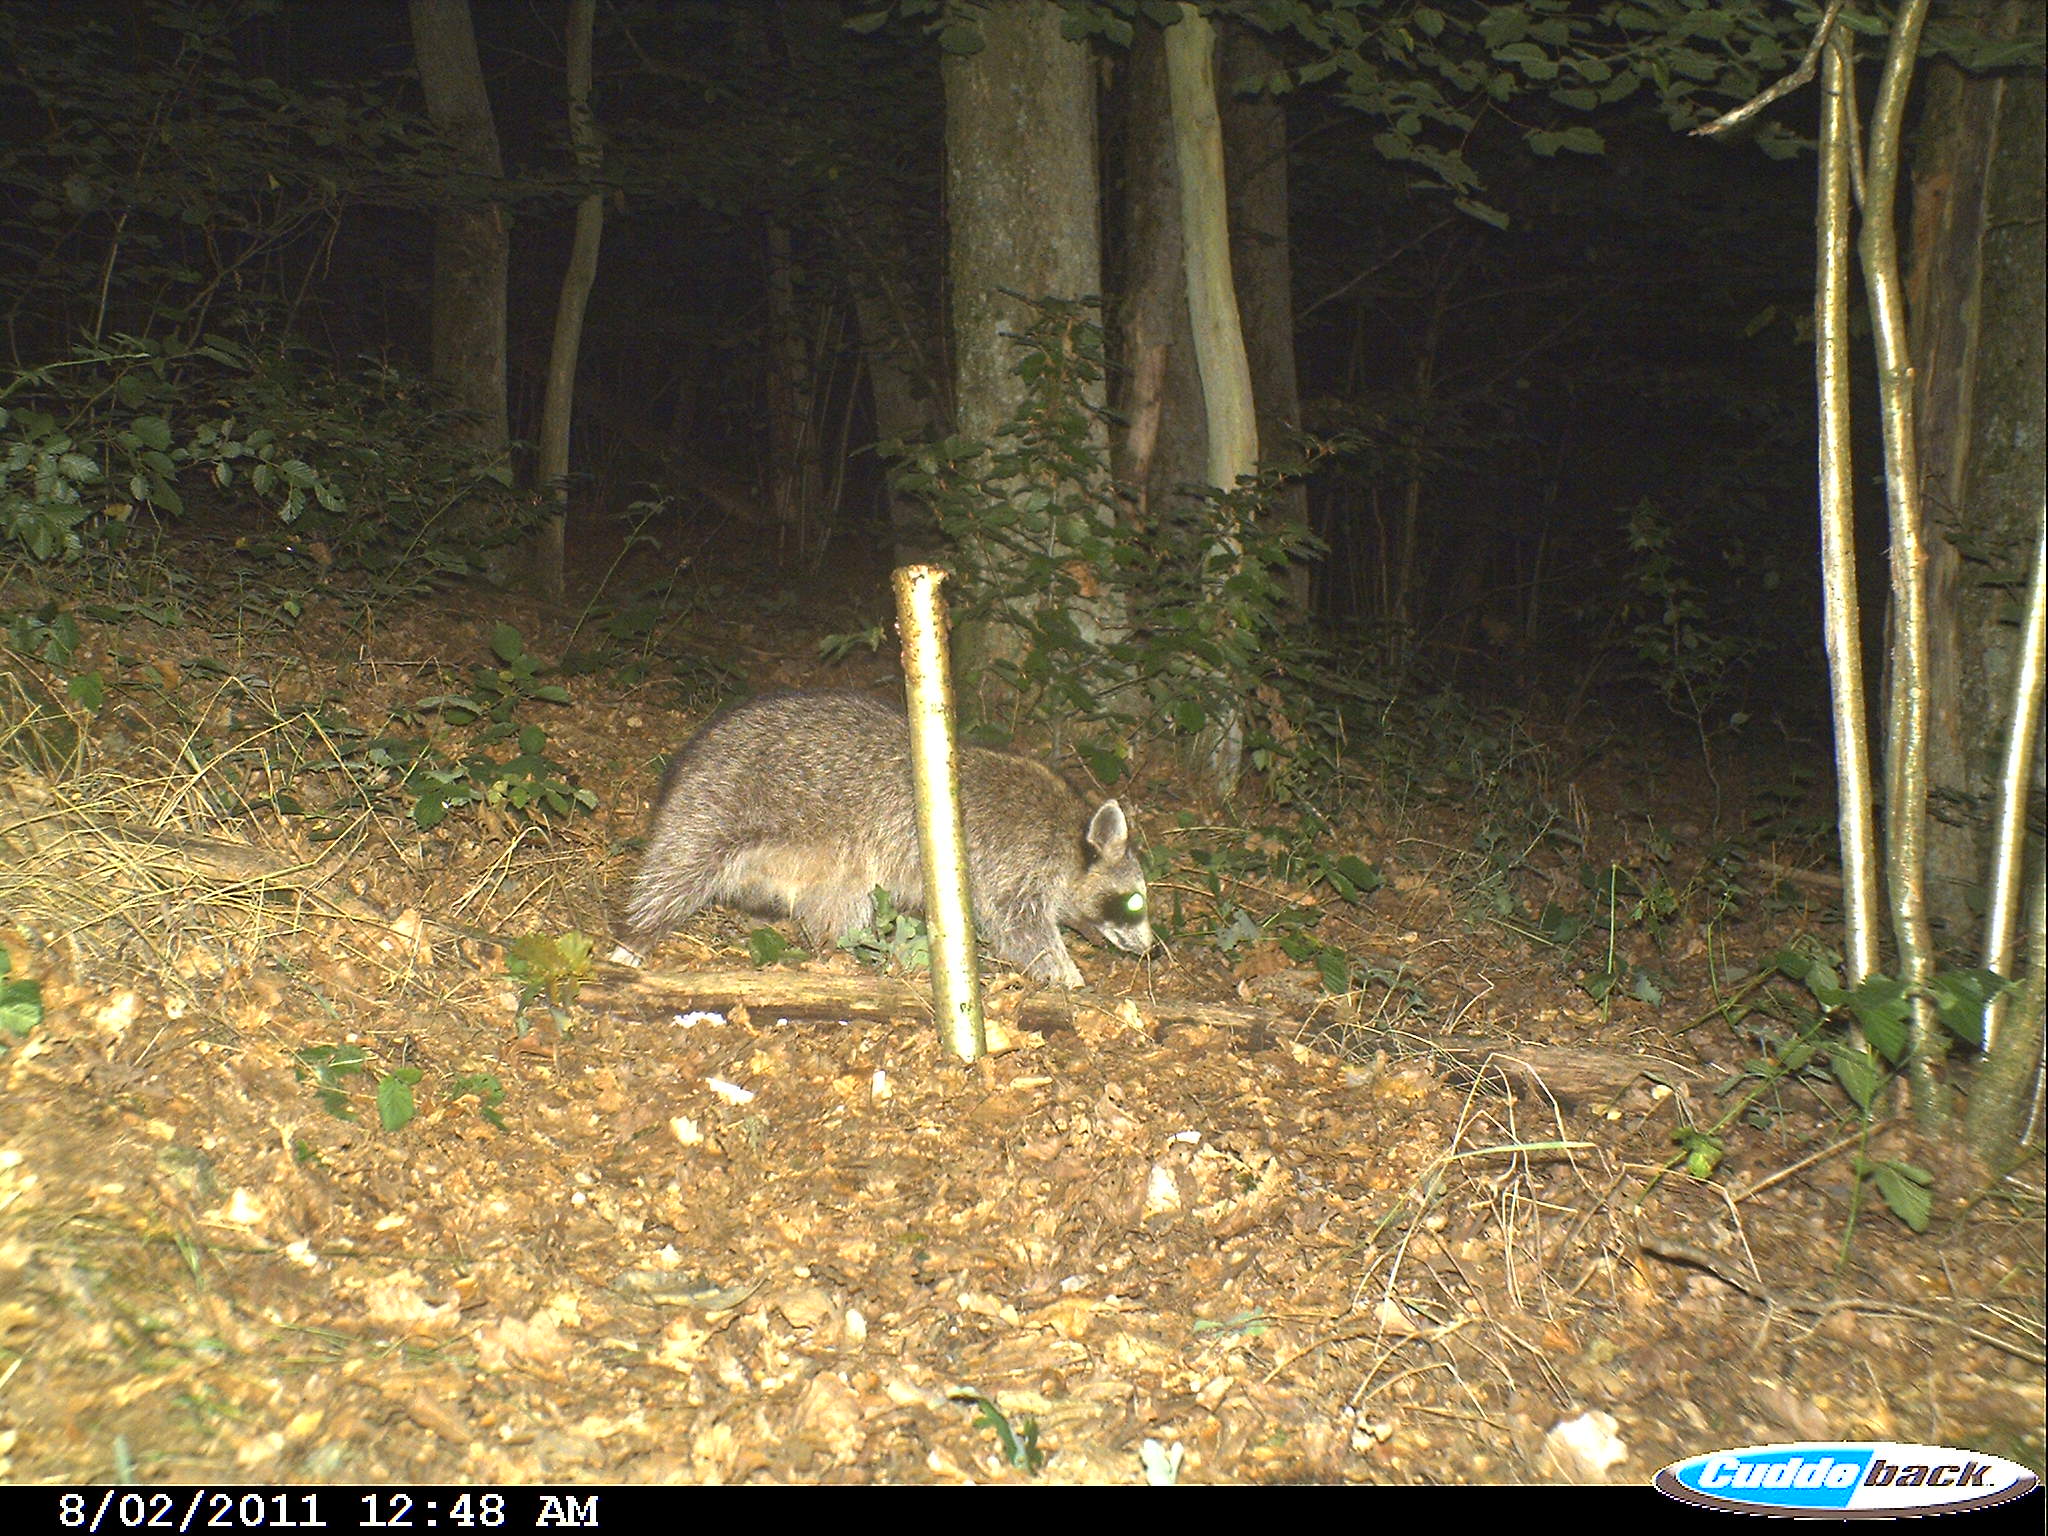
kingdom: Animalia
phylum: Chordata
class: Mammalia
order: Carnivora
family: Procyonidae
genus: Procyon
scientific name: Procyon lotor
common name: Raccoon
